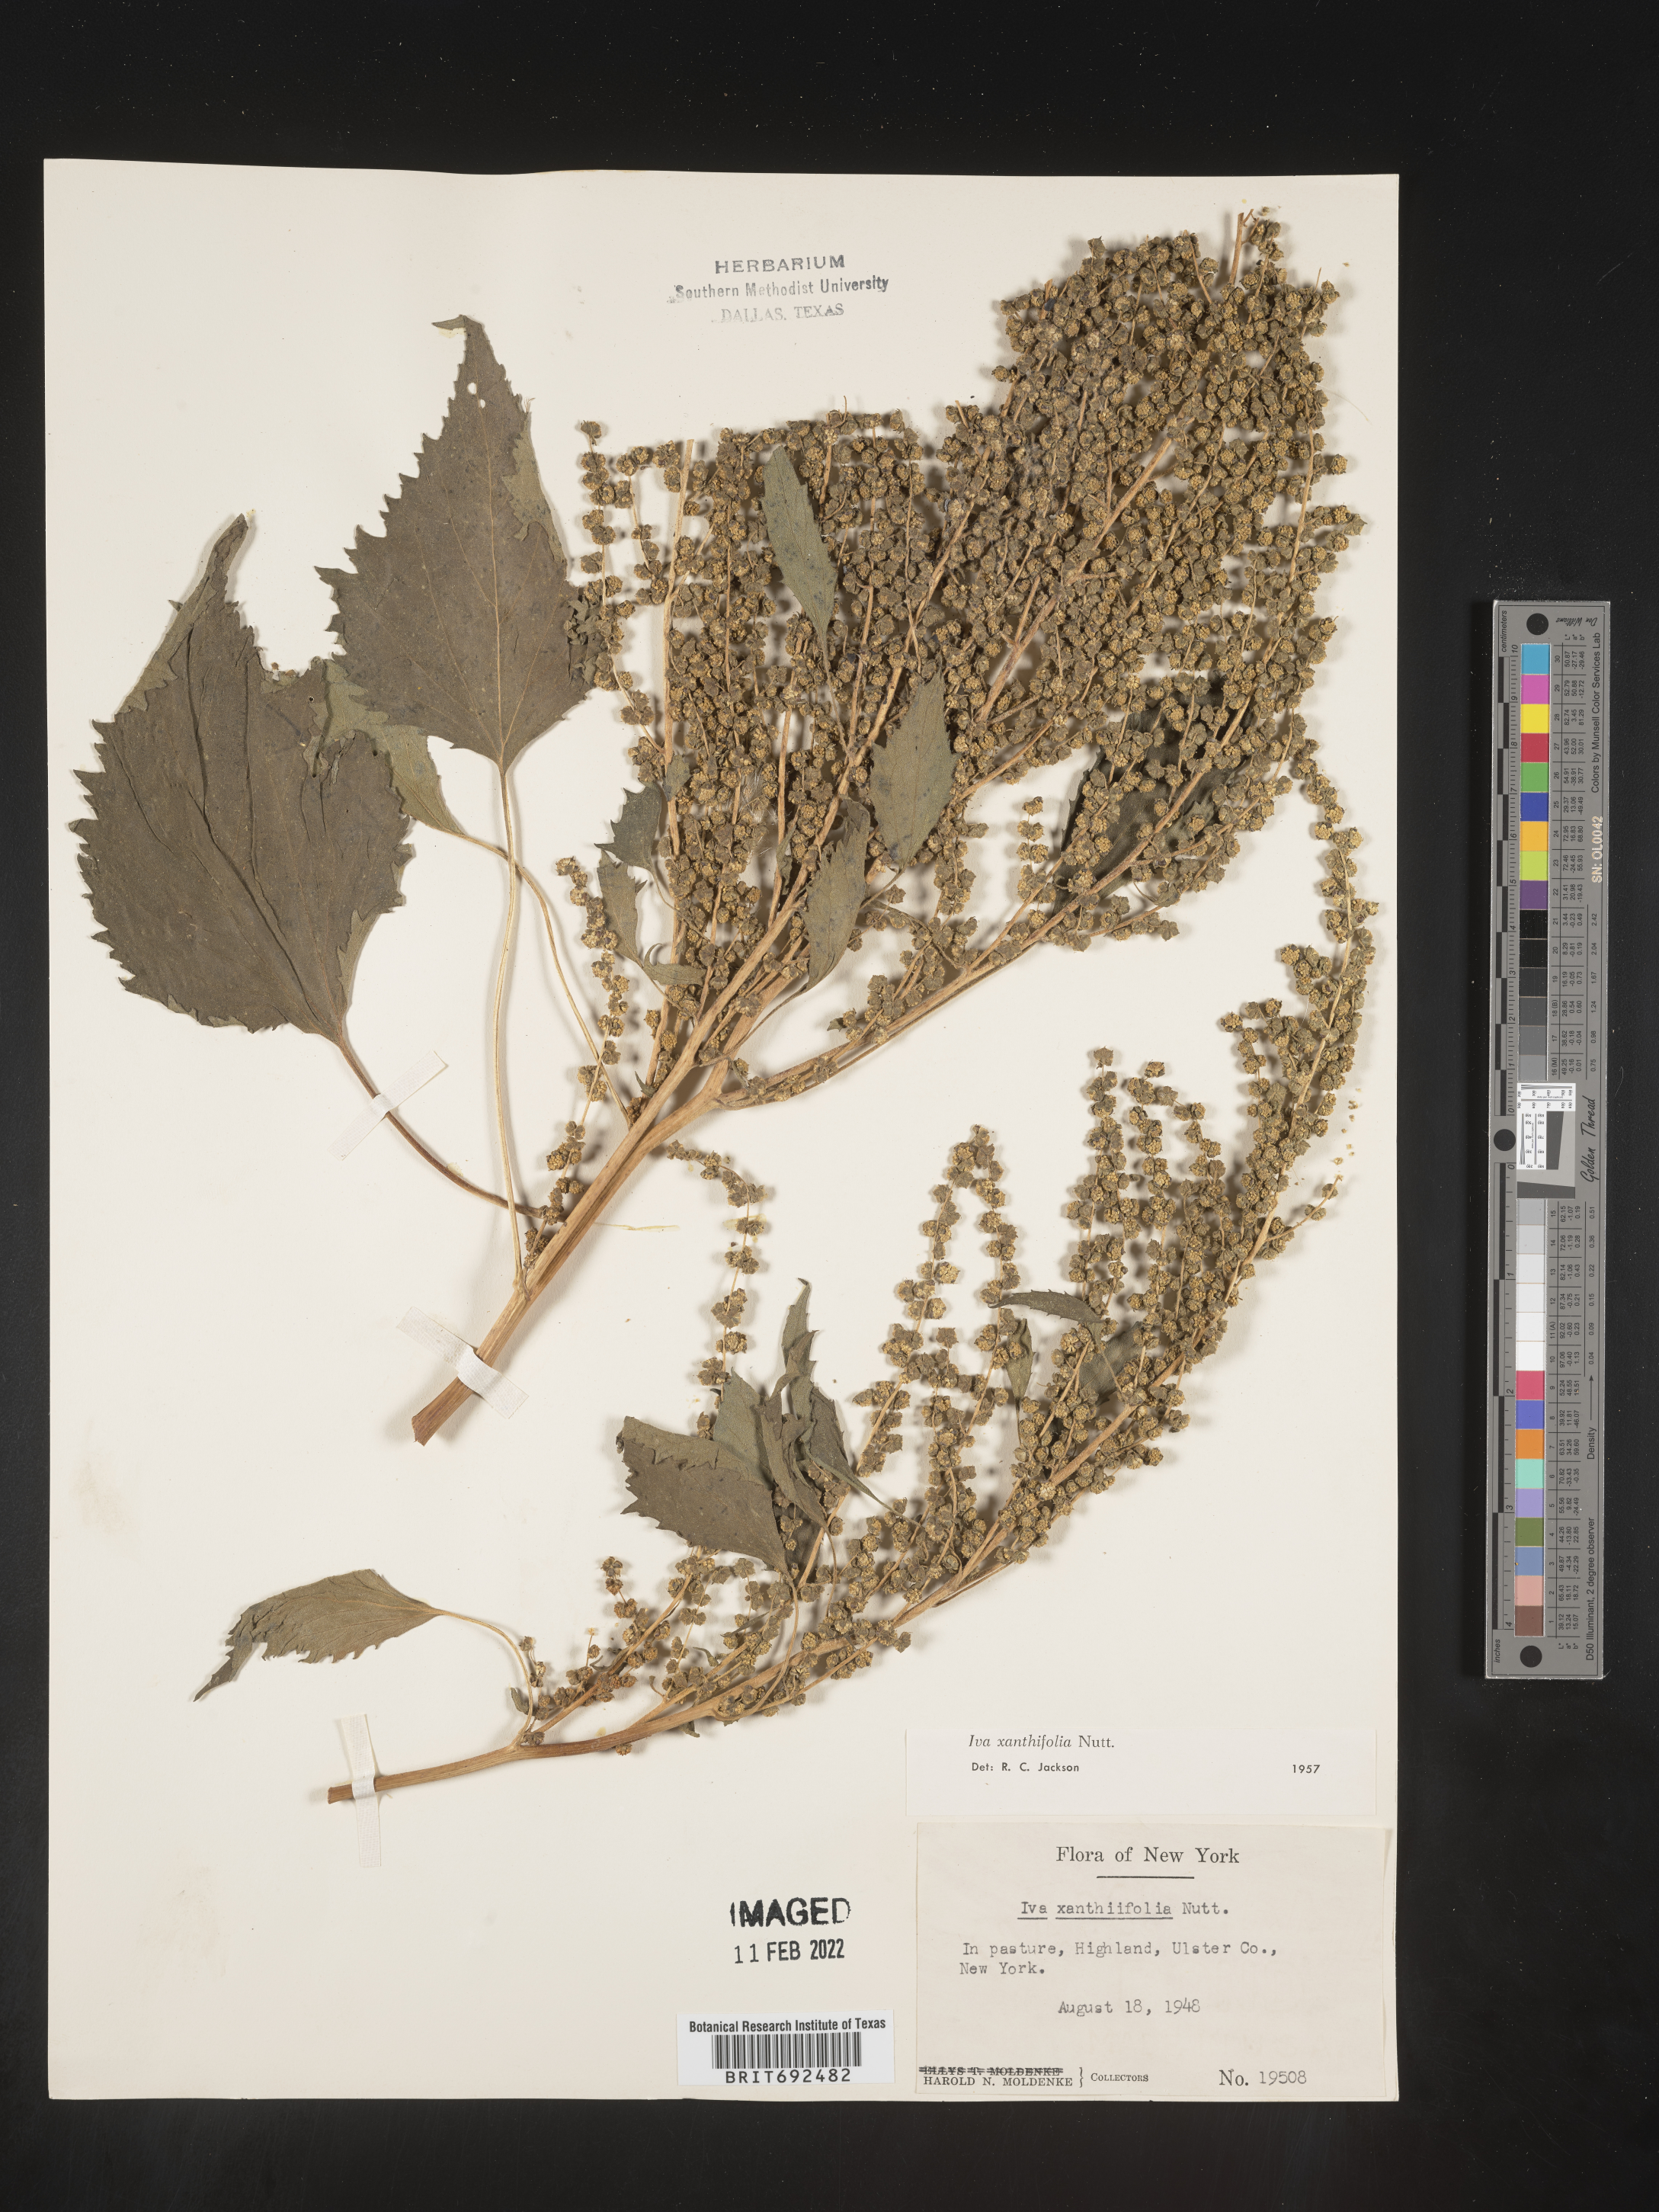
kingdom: Plantae
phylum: Tracheophyta
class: Magnoliopsida
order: Asterales
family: Asteraceae
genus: Cyclachaena
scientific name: Cyclachaena
